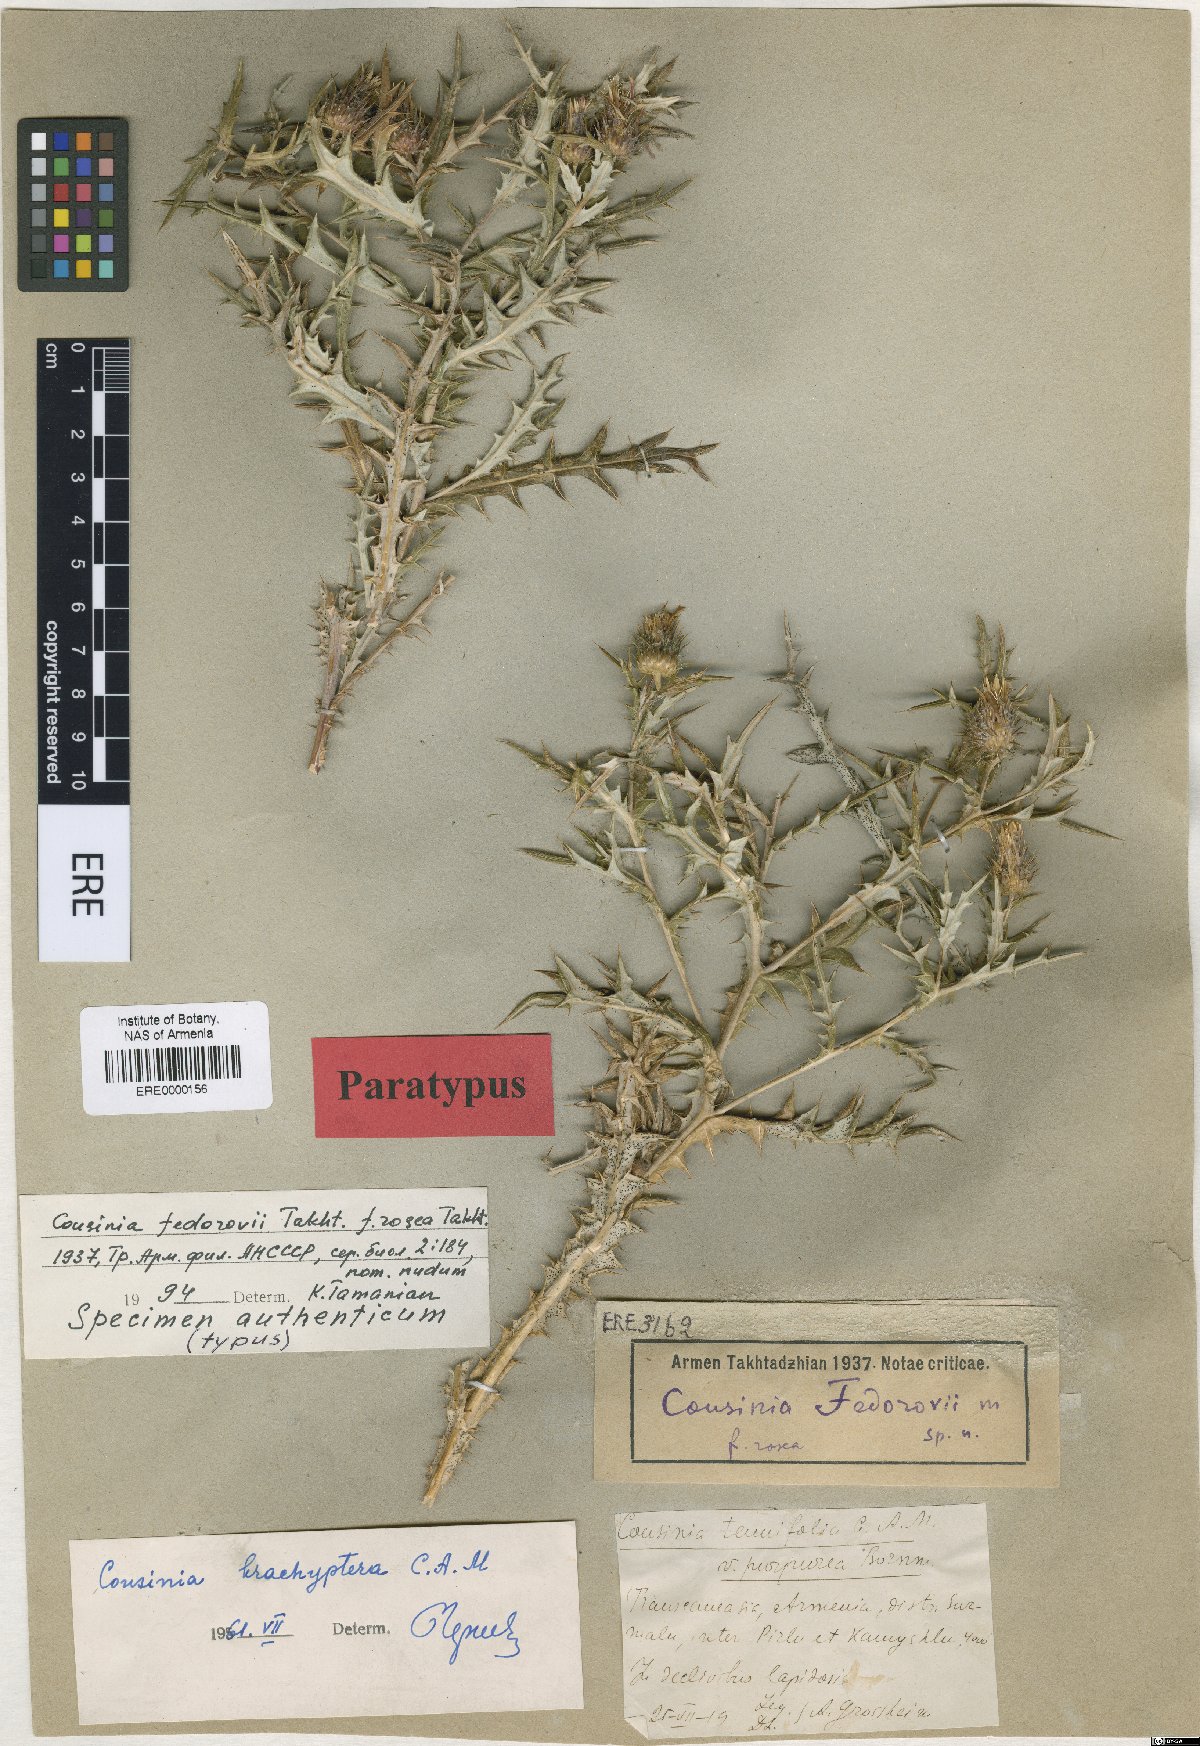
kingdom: Plantae
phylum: Tracheophyta
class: Magnoliopsida
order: Asterales
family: Asteraceae
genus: Cousinia
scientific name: Cousinia fedorovii
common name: Fedorov's cousinia
